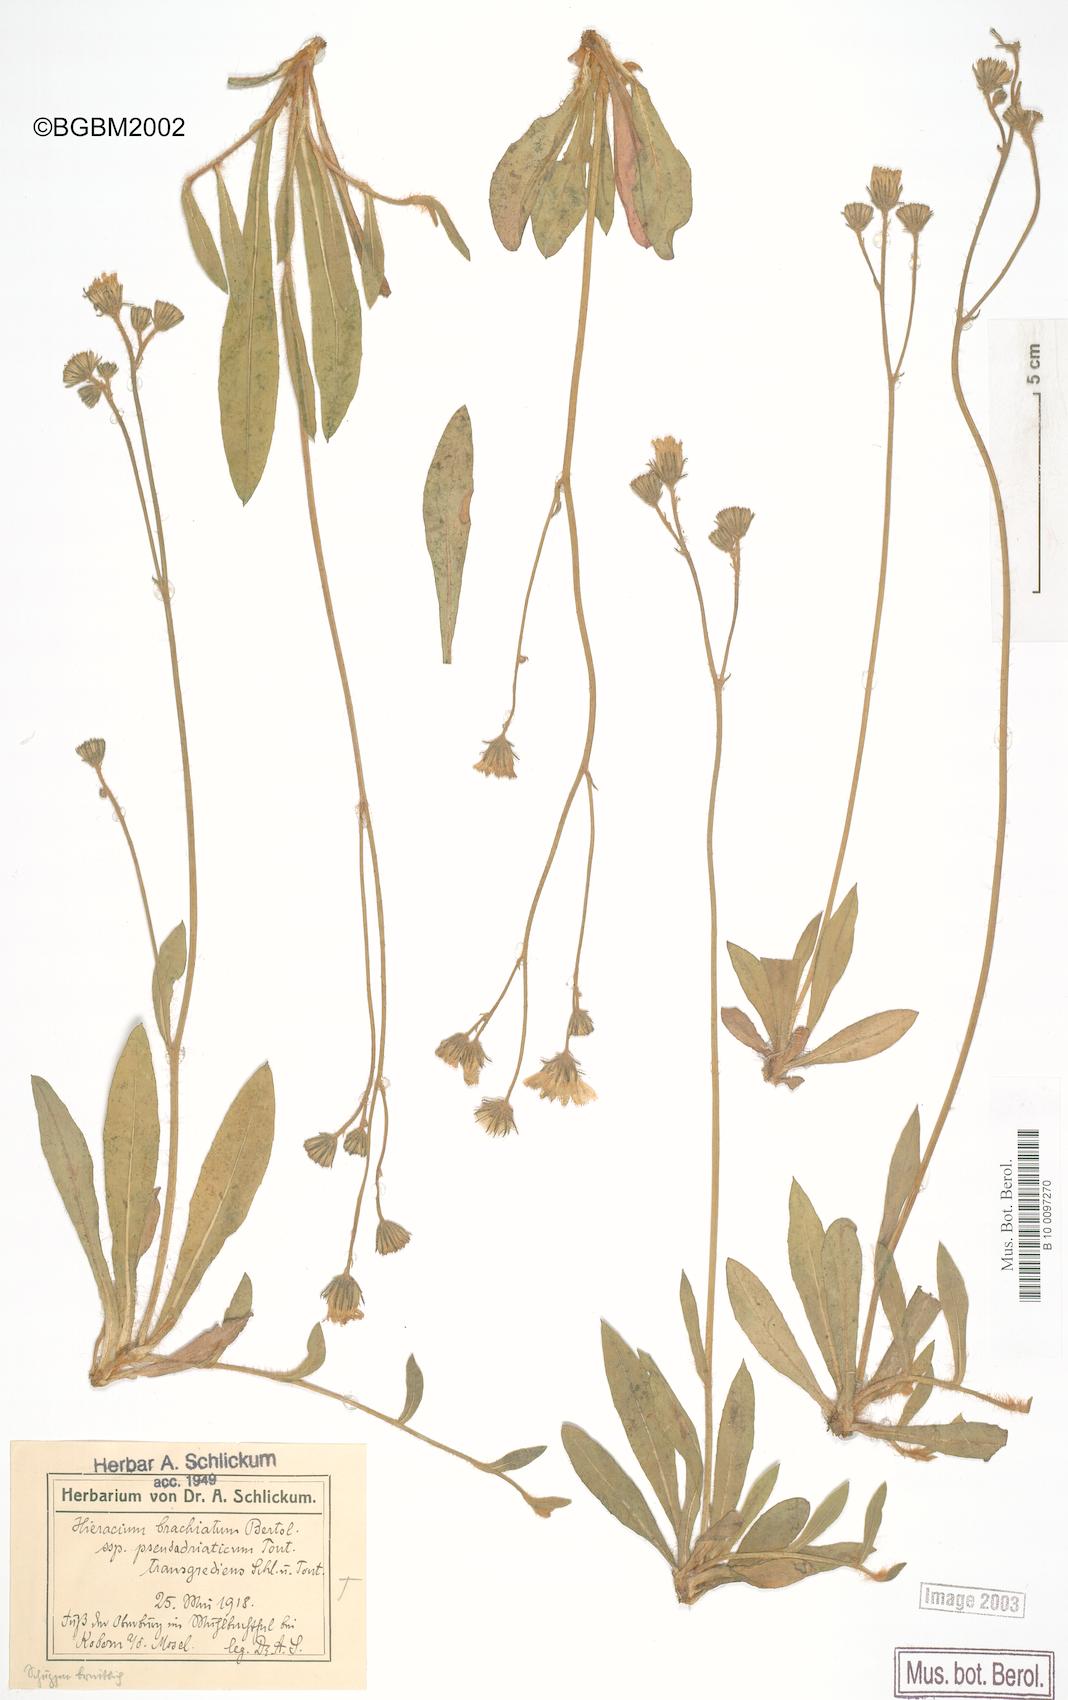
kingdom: Plantae
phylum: Tracheophyta
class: Magnoliopsida
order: Asterales
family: Asteraceae
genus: Pilosella
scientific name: Pilosella acutifolia
